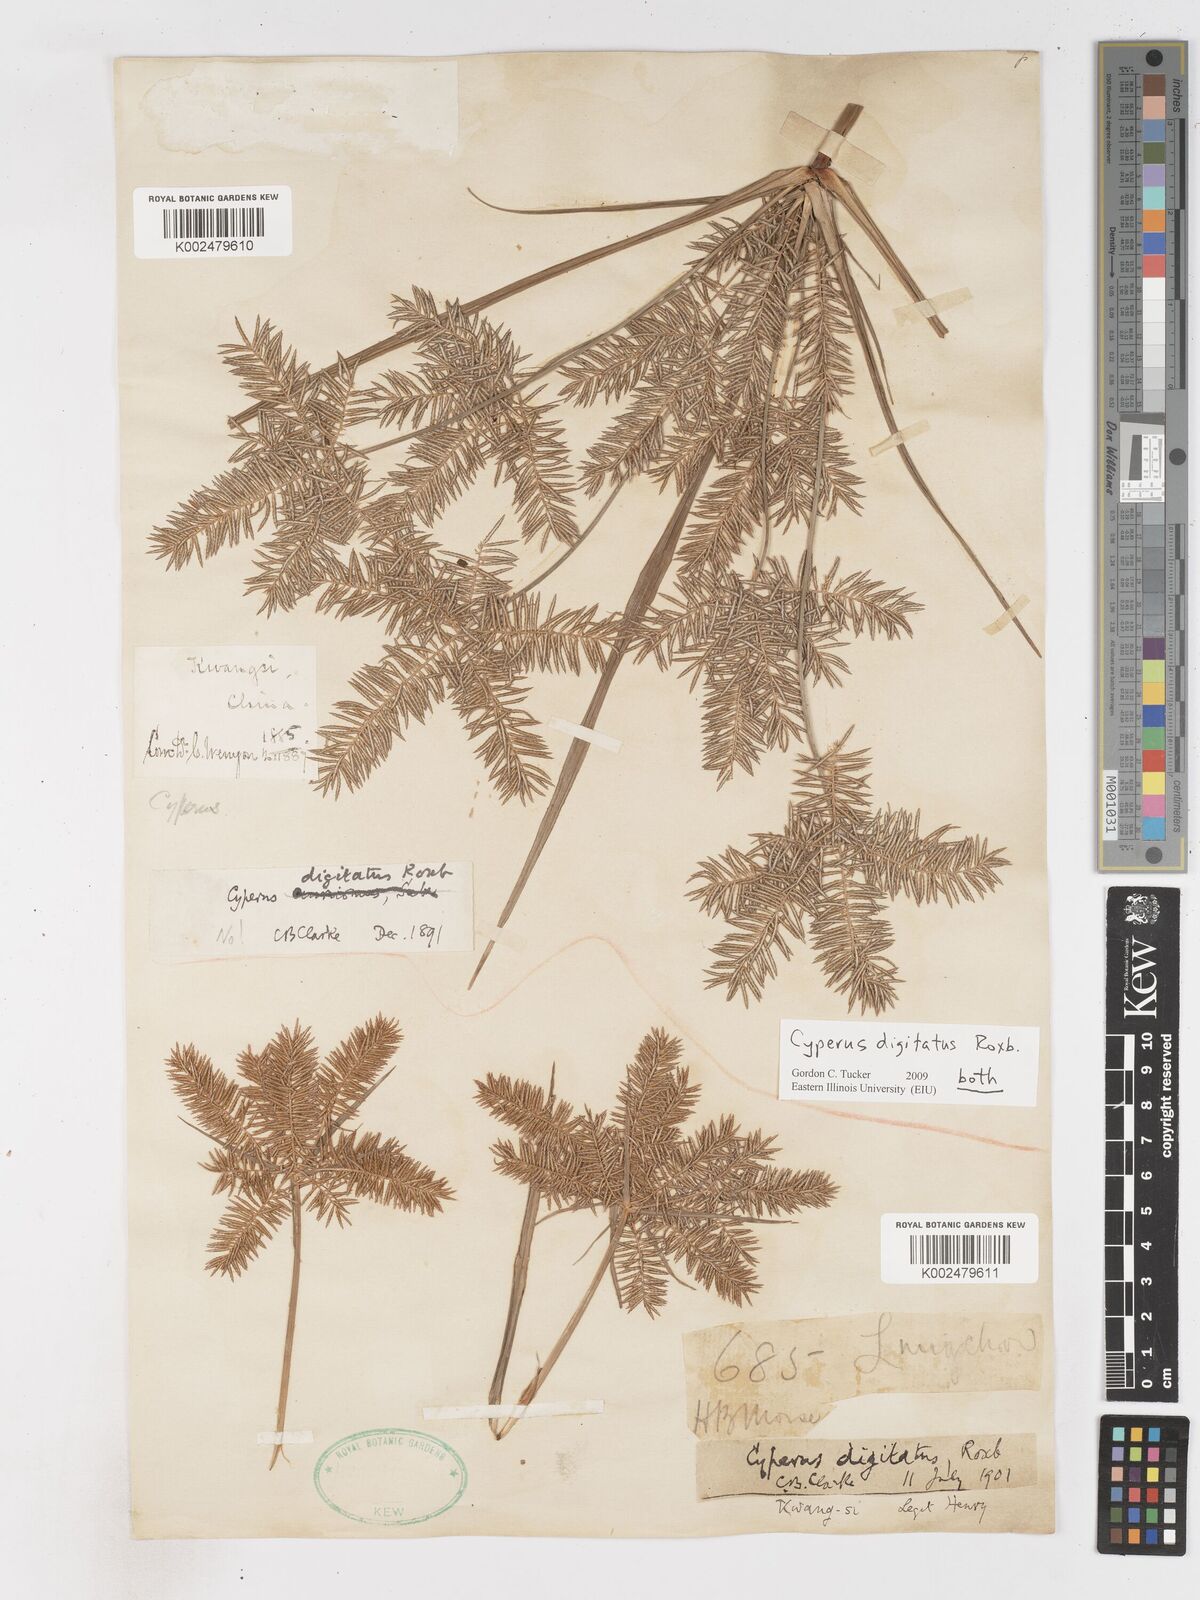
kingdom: Plantae
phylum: Tracheophyta
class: Liliopsida
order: Poales
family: Cyperaceae
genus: Cyperus
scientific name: Cyperus digitatus
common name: Finger flatsedge
